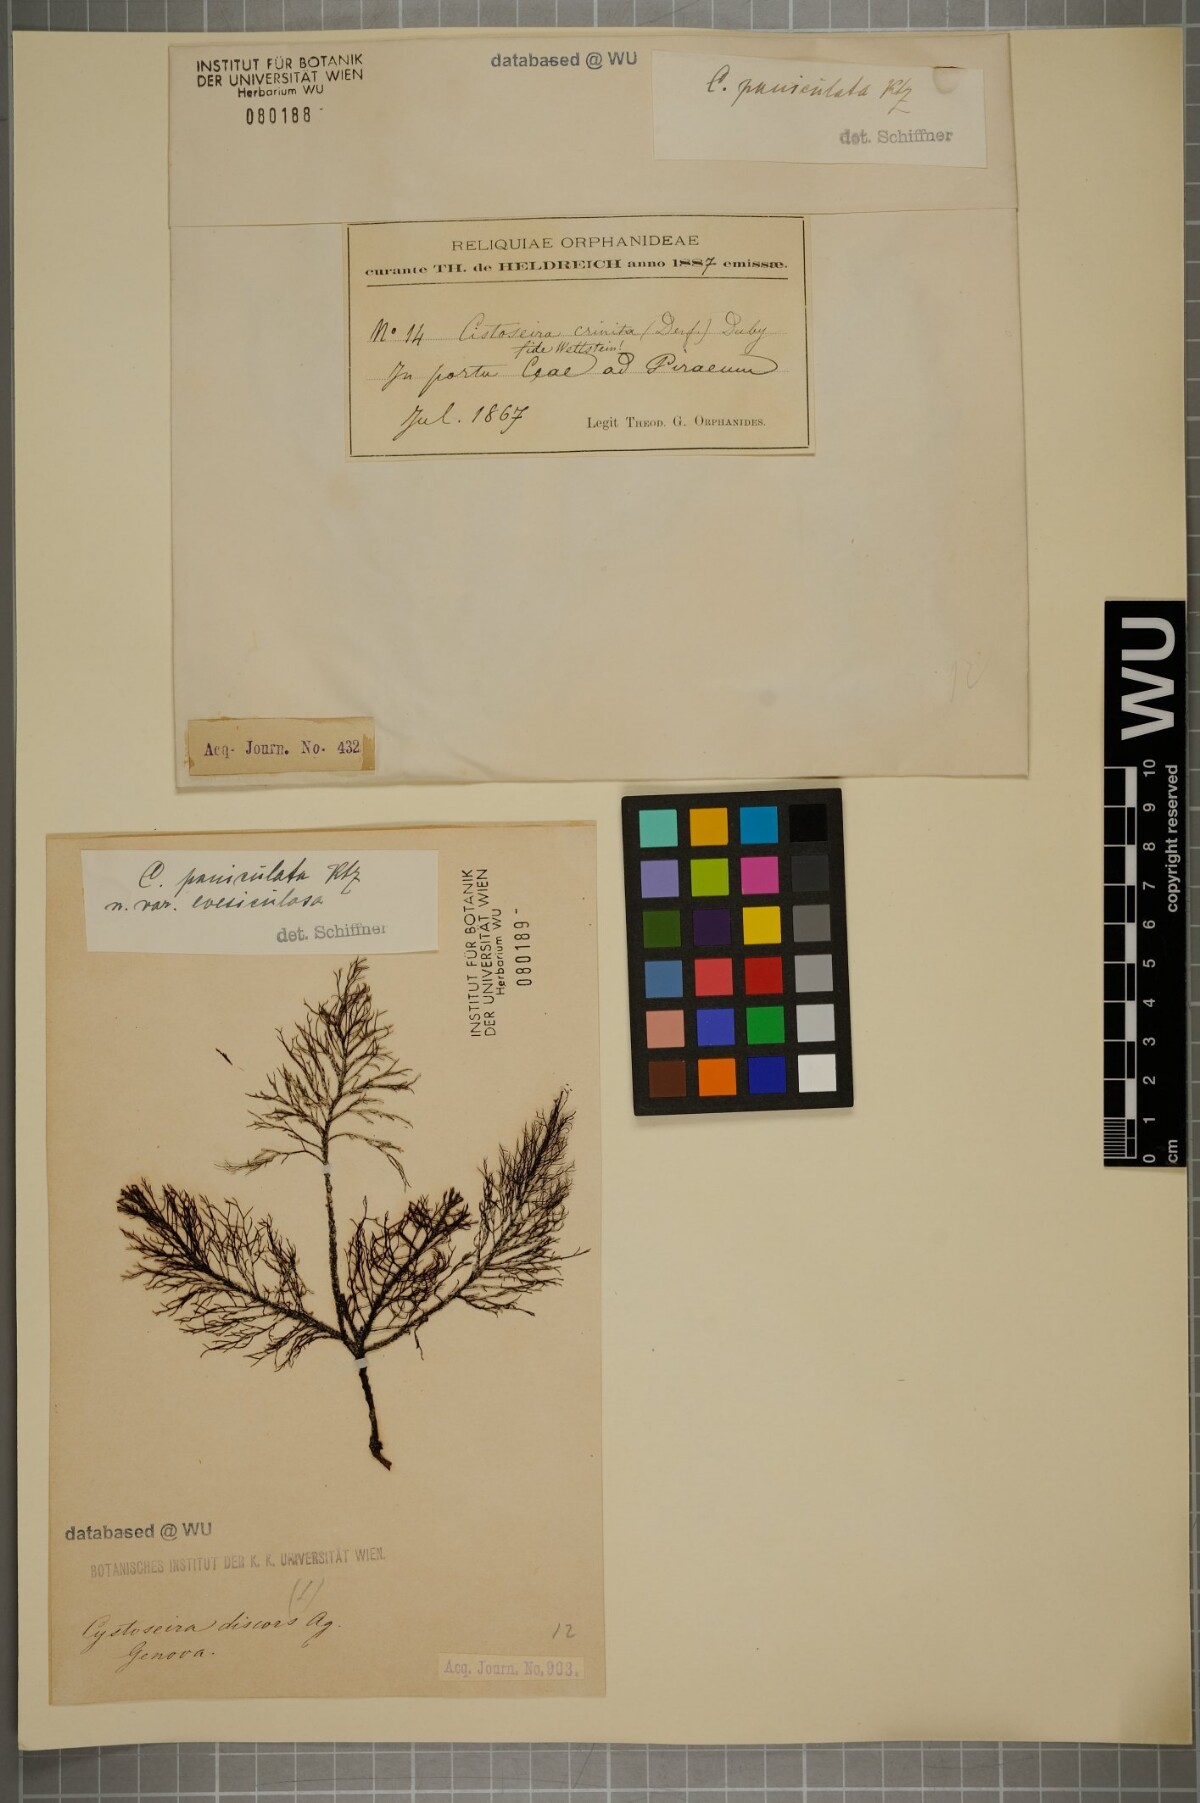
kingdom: Chromista
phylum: Ochrophyta
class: Phaeophyceae
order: Fucales
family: Sargassaceae
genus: Cystoseira
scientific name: Cystoseira
